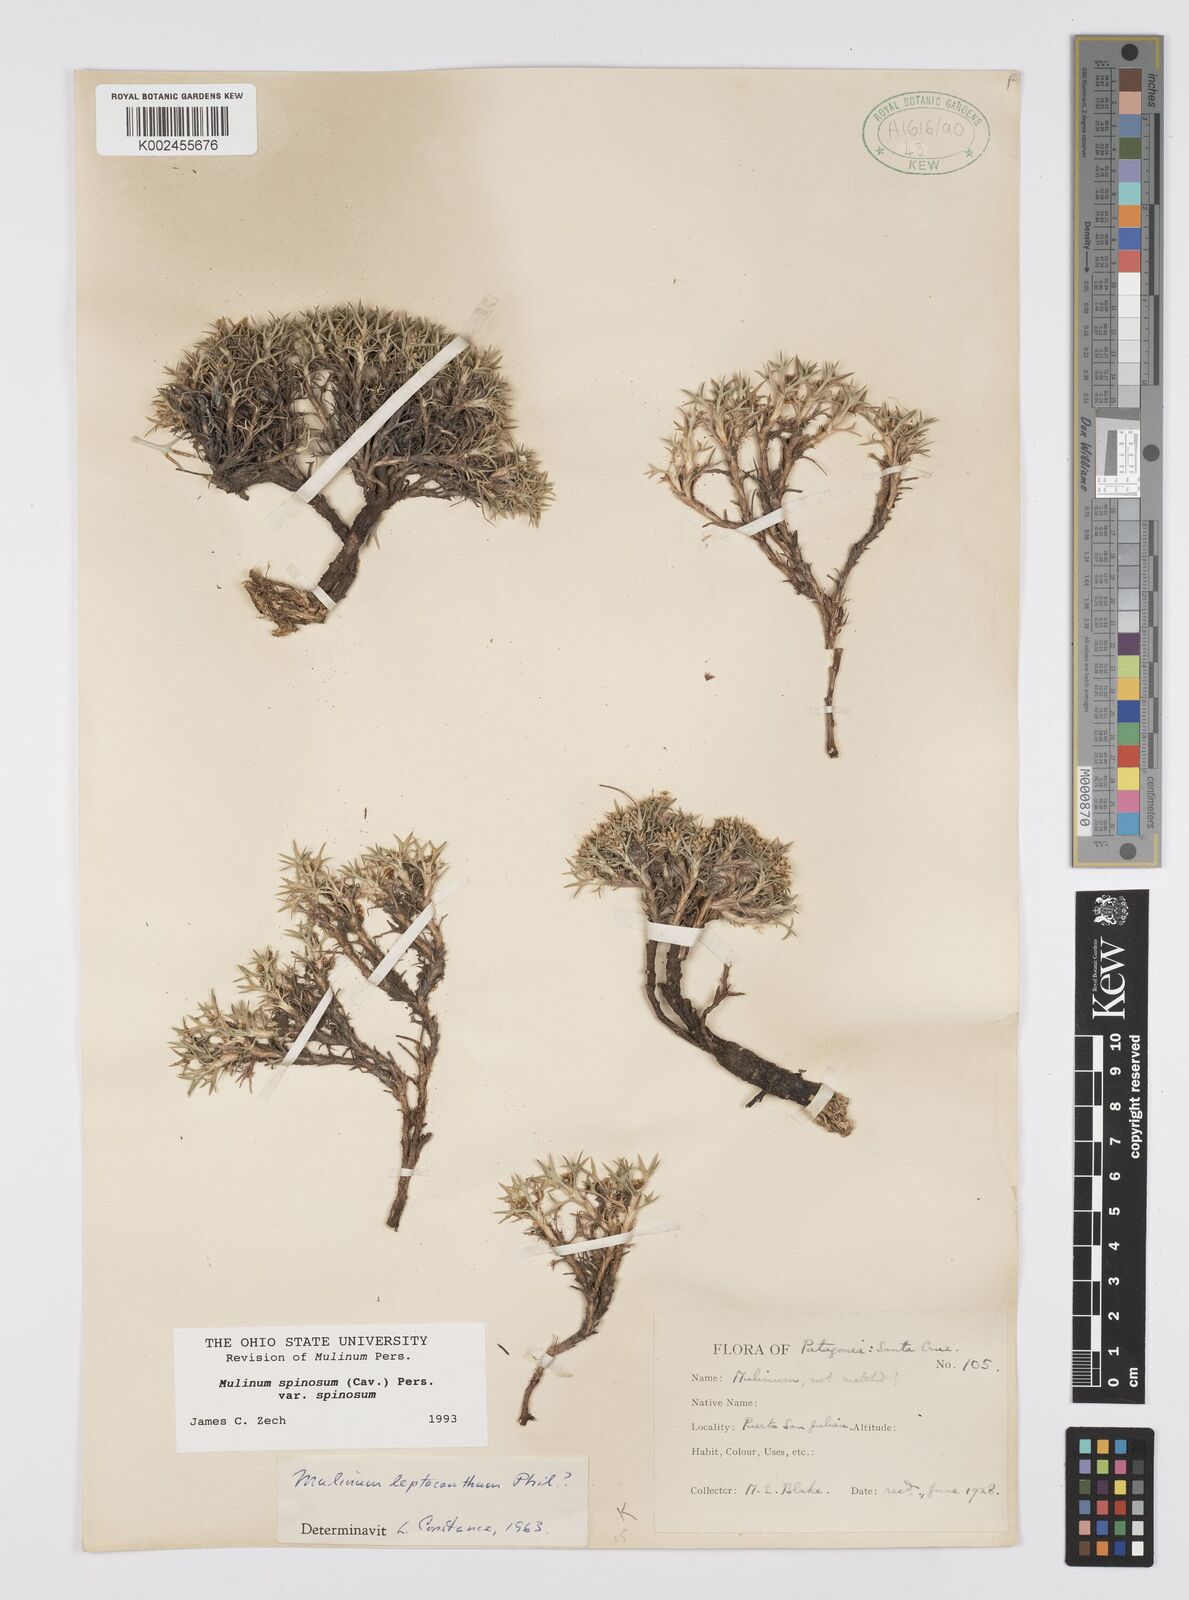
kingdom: Plantae
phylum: Tracheophyta
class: Magnoliopsida
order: Apiales
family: Apiaceae
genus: Azorella
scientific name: Azorella prolifera
